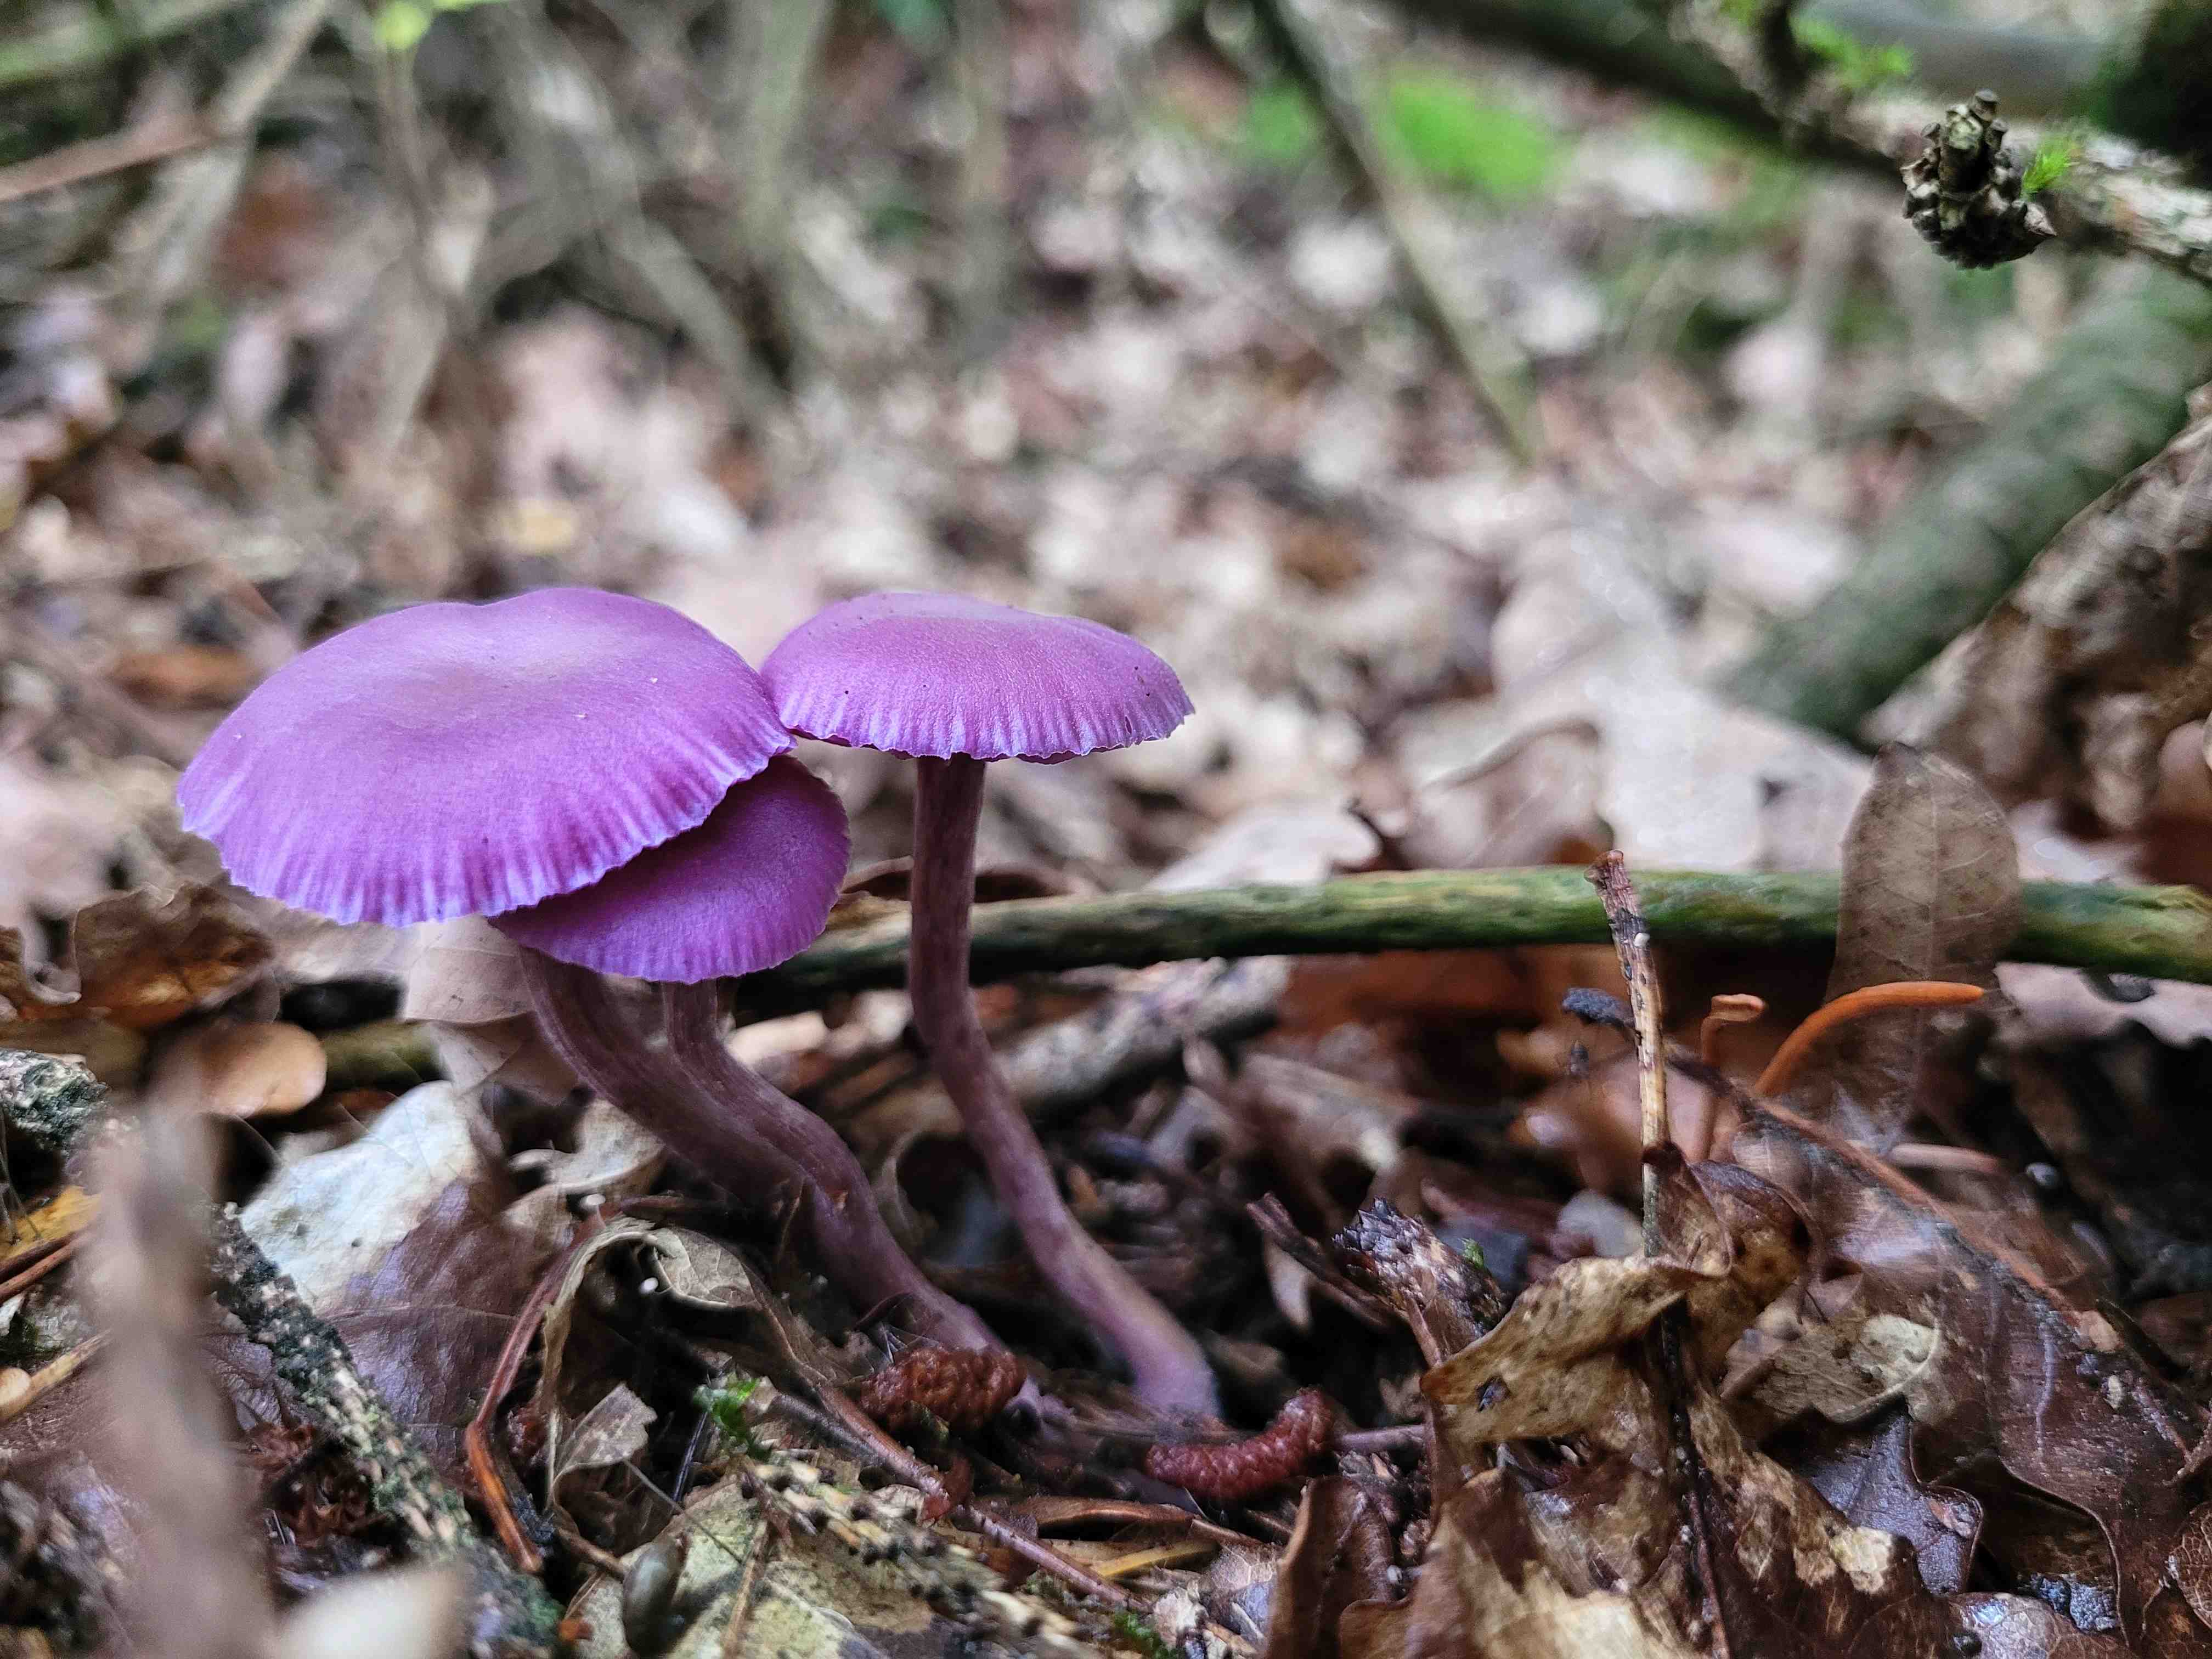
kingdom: Fungi
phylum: Basidiomycota
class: Agaricomycetes
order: Agaricales
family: Hydnangiaceae
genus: Laccaria
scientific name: Laccaria amethystina
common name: violet ametysthat
